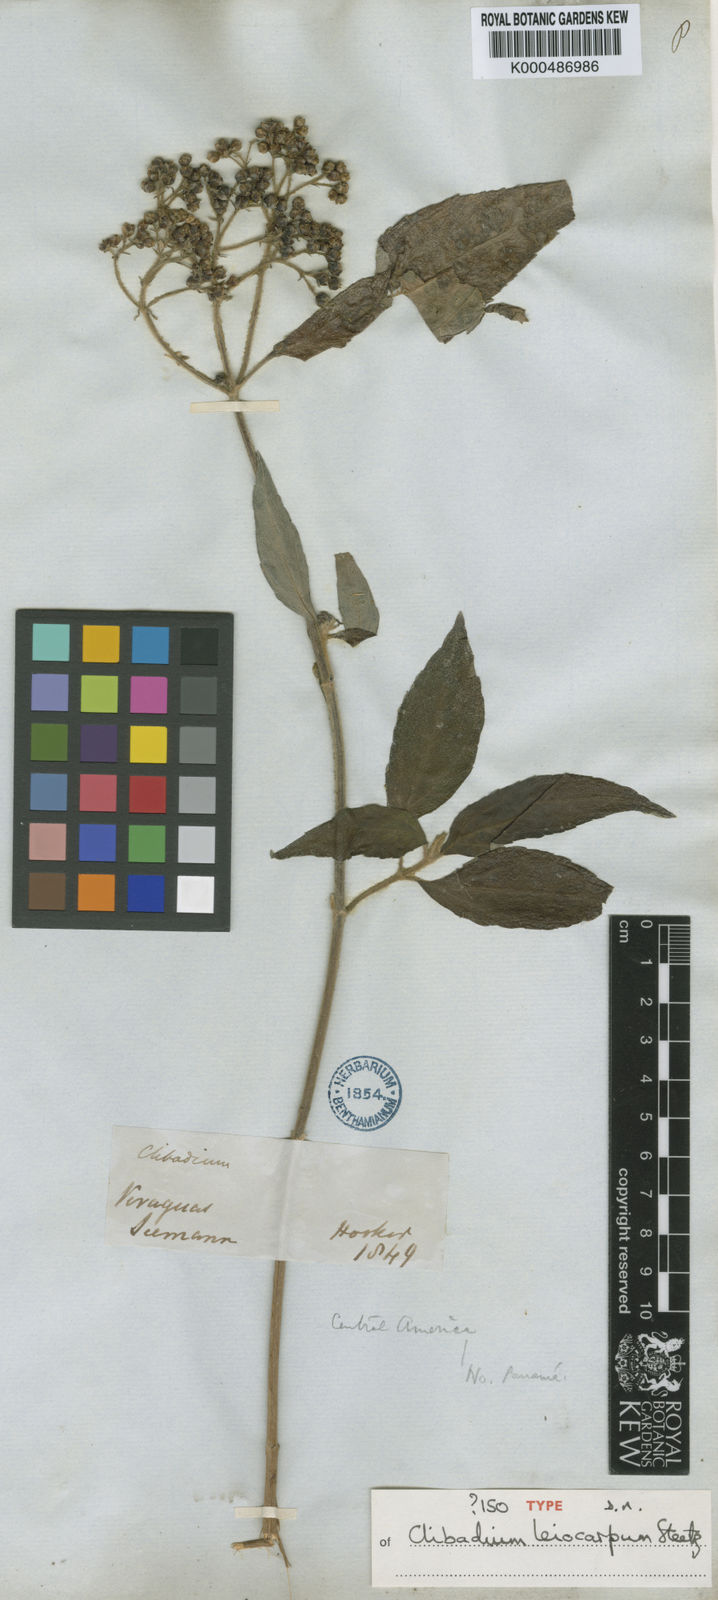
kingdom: Plantae
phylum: Tracheophyta
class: Magnoliopsida
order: Asterales
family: Asteraceae
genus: Clibadium
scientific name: Clibadium leiocarpum
